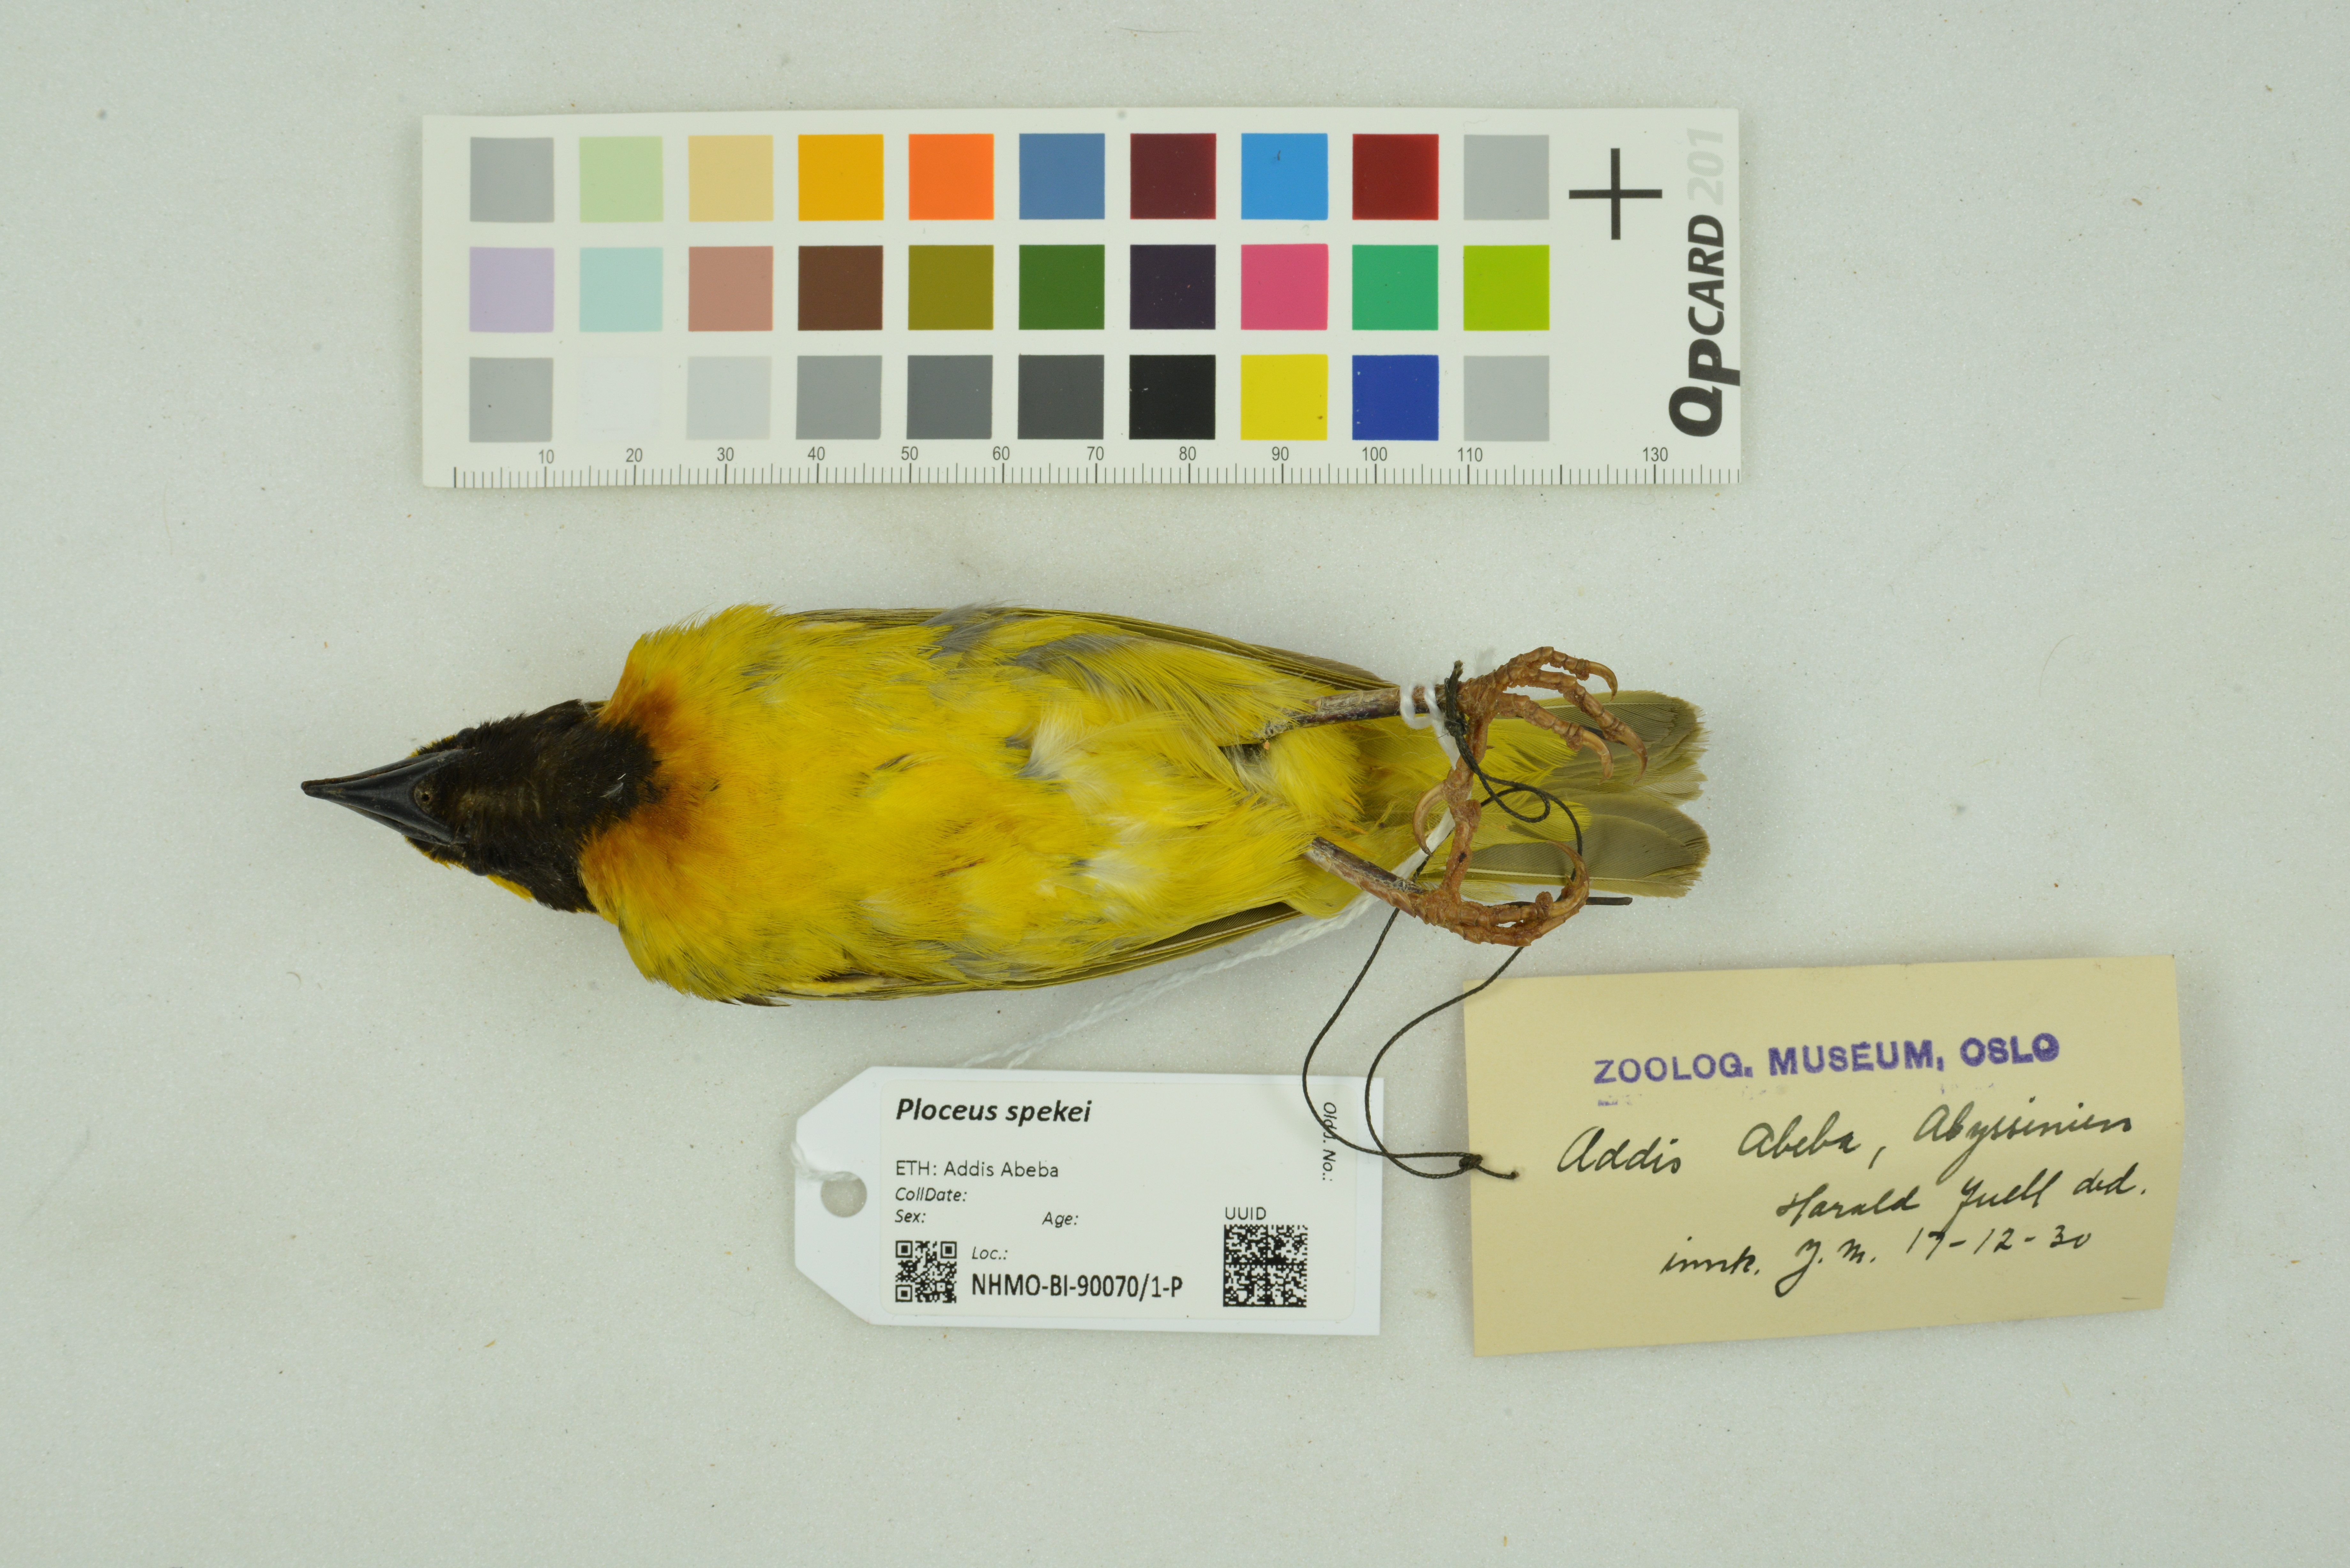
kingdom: Animalia
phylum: Chordata
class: Aves
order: Passeriformes
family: Ploceidae
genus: Ploceus
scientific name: Ploceus spekei
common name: Speke's weaver
